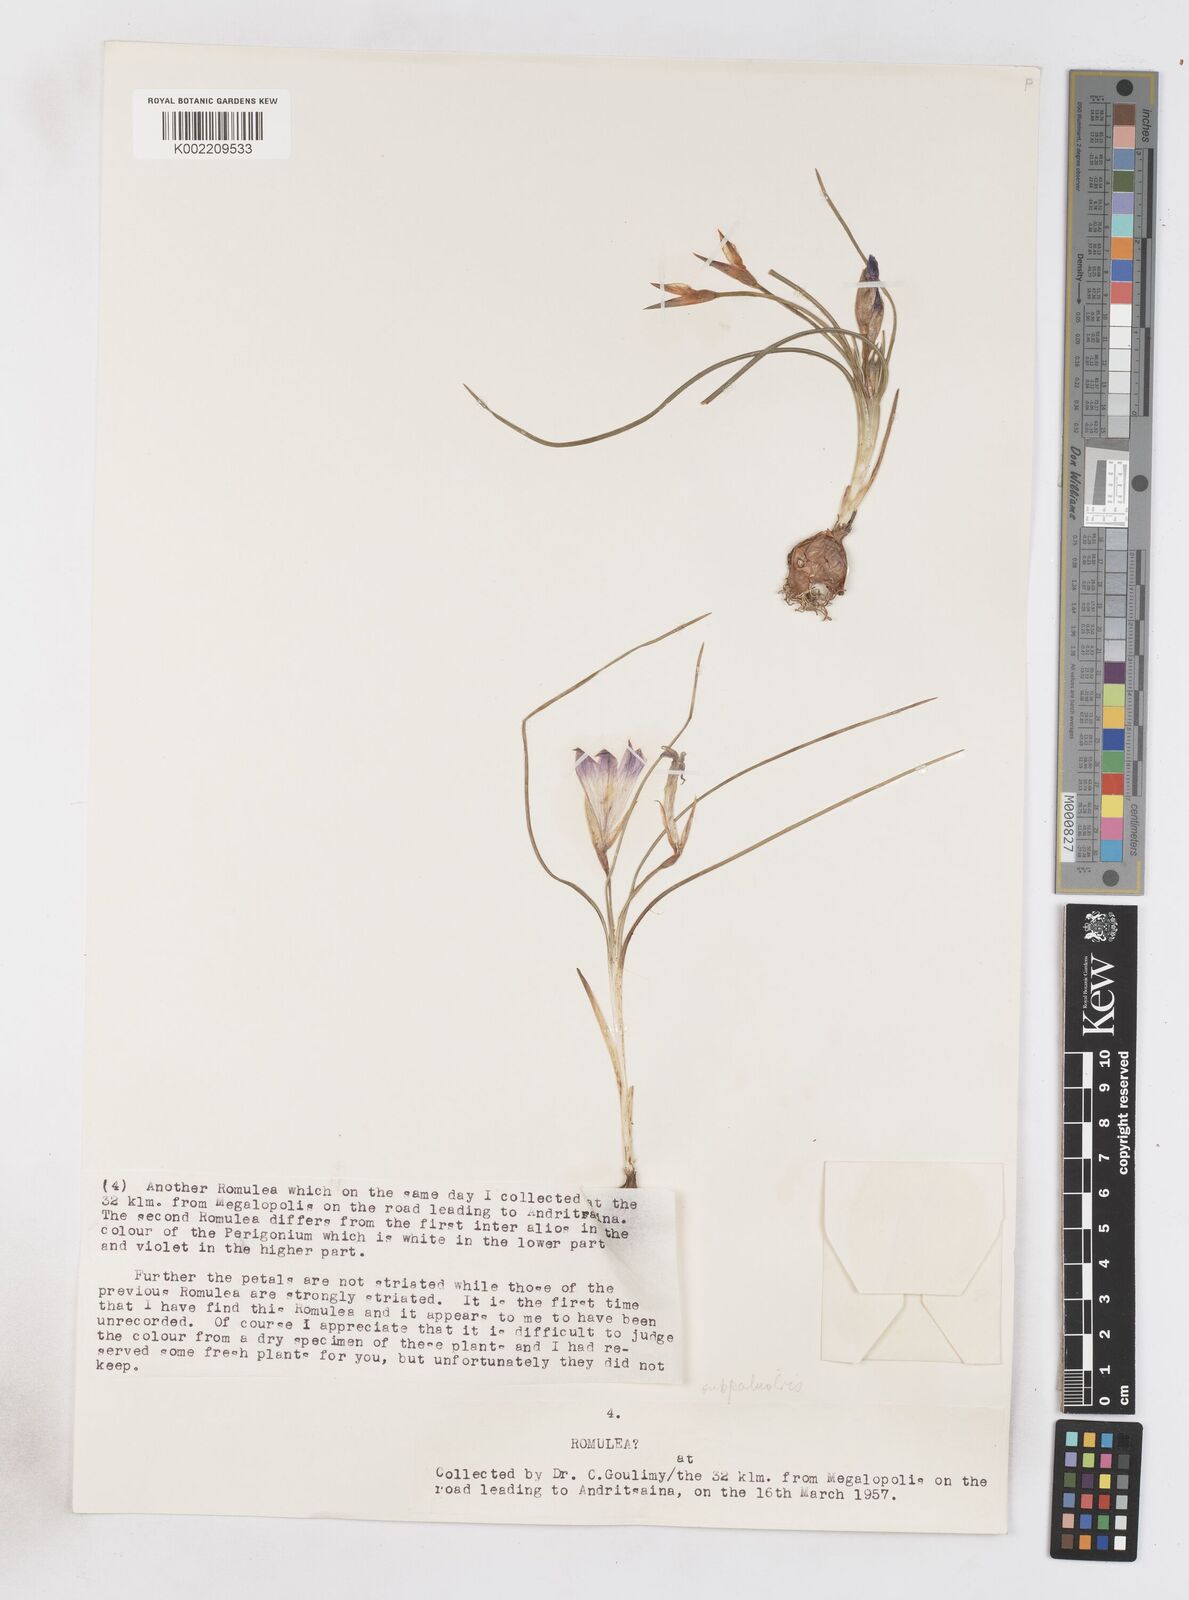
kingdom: Plantae
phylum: Tracheophyta
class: Liliopsida
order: Asparagales
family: Iridaceae
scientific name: Iridaceae
